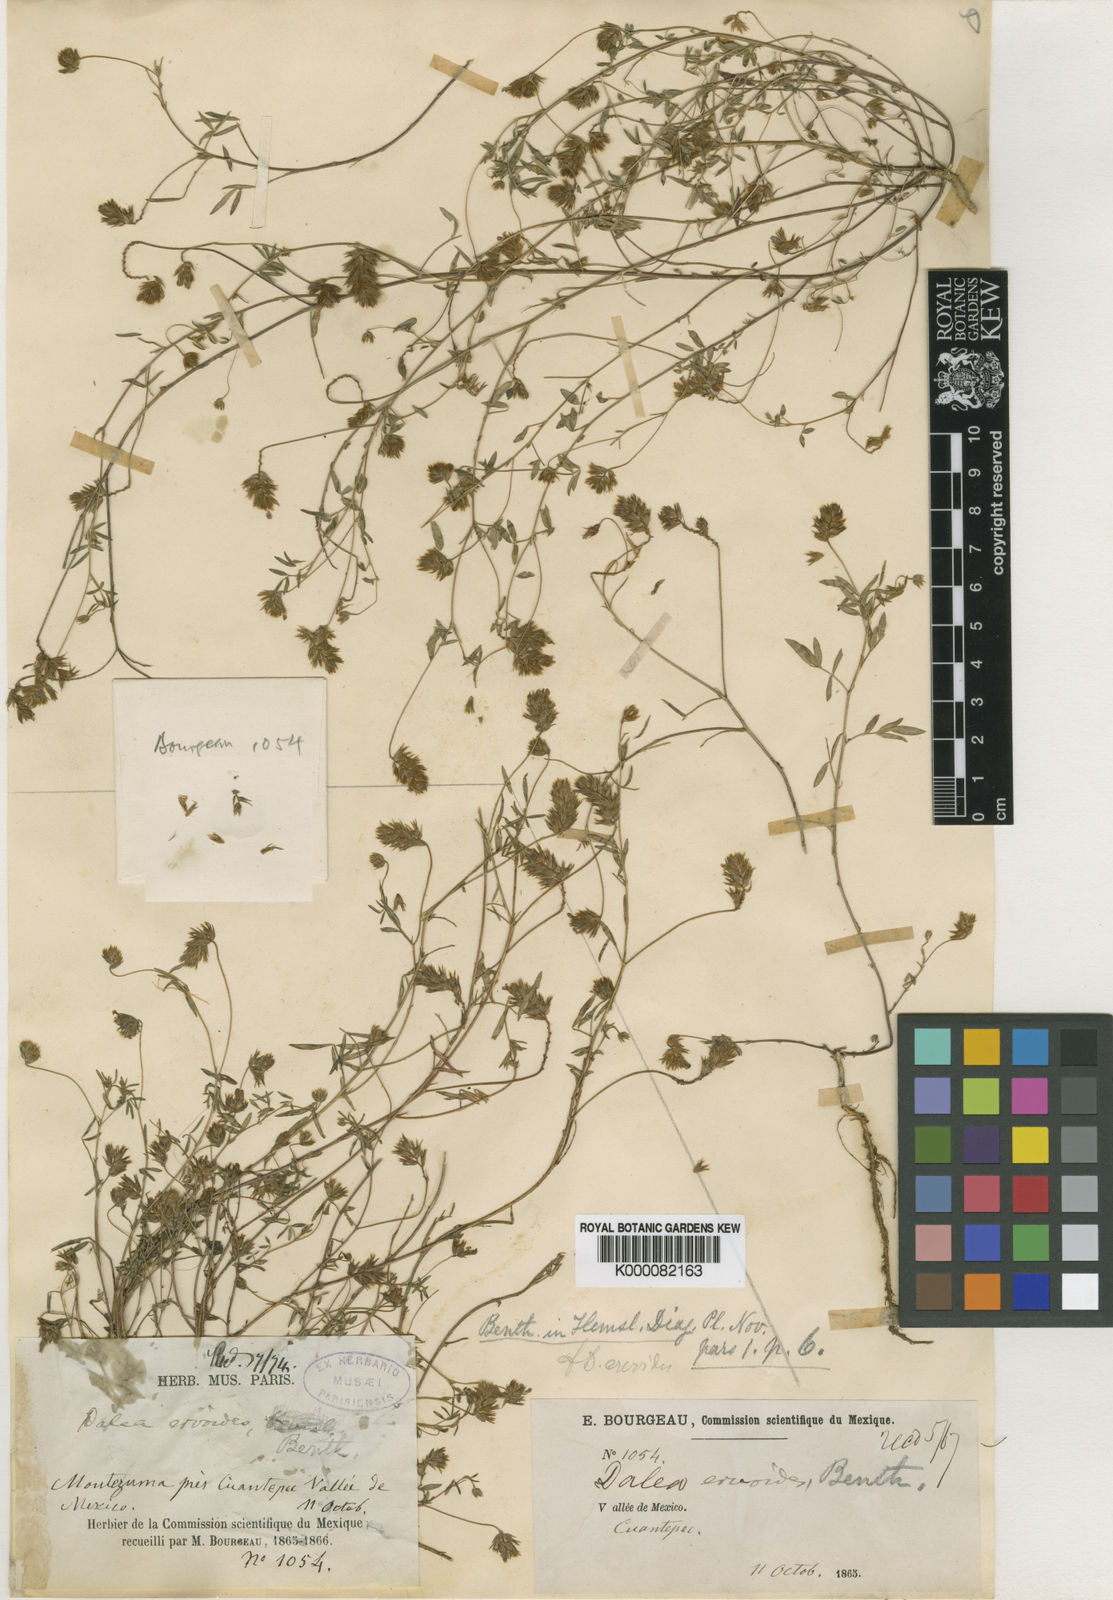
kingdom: Plantae
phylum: Tracheophyta
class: Magnoliopsida
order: Fabales
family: Fabaceae
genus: Dalea
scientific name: Dalea humilis
